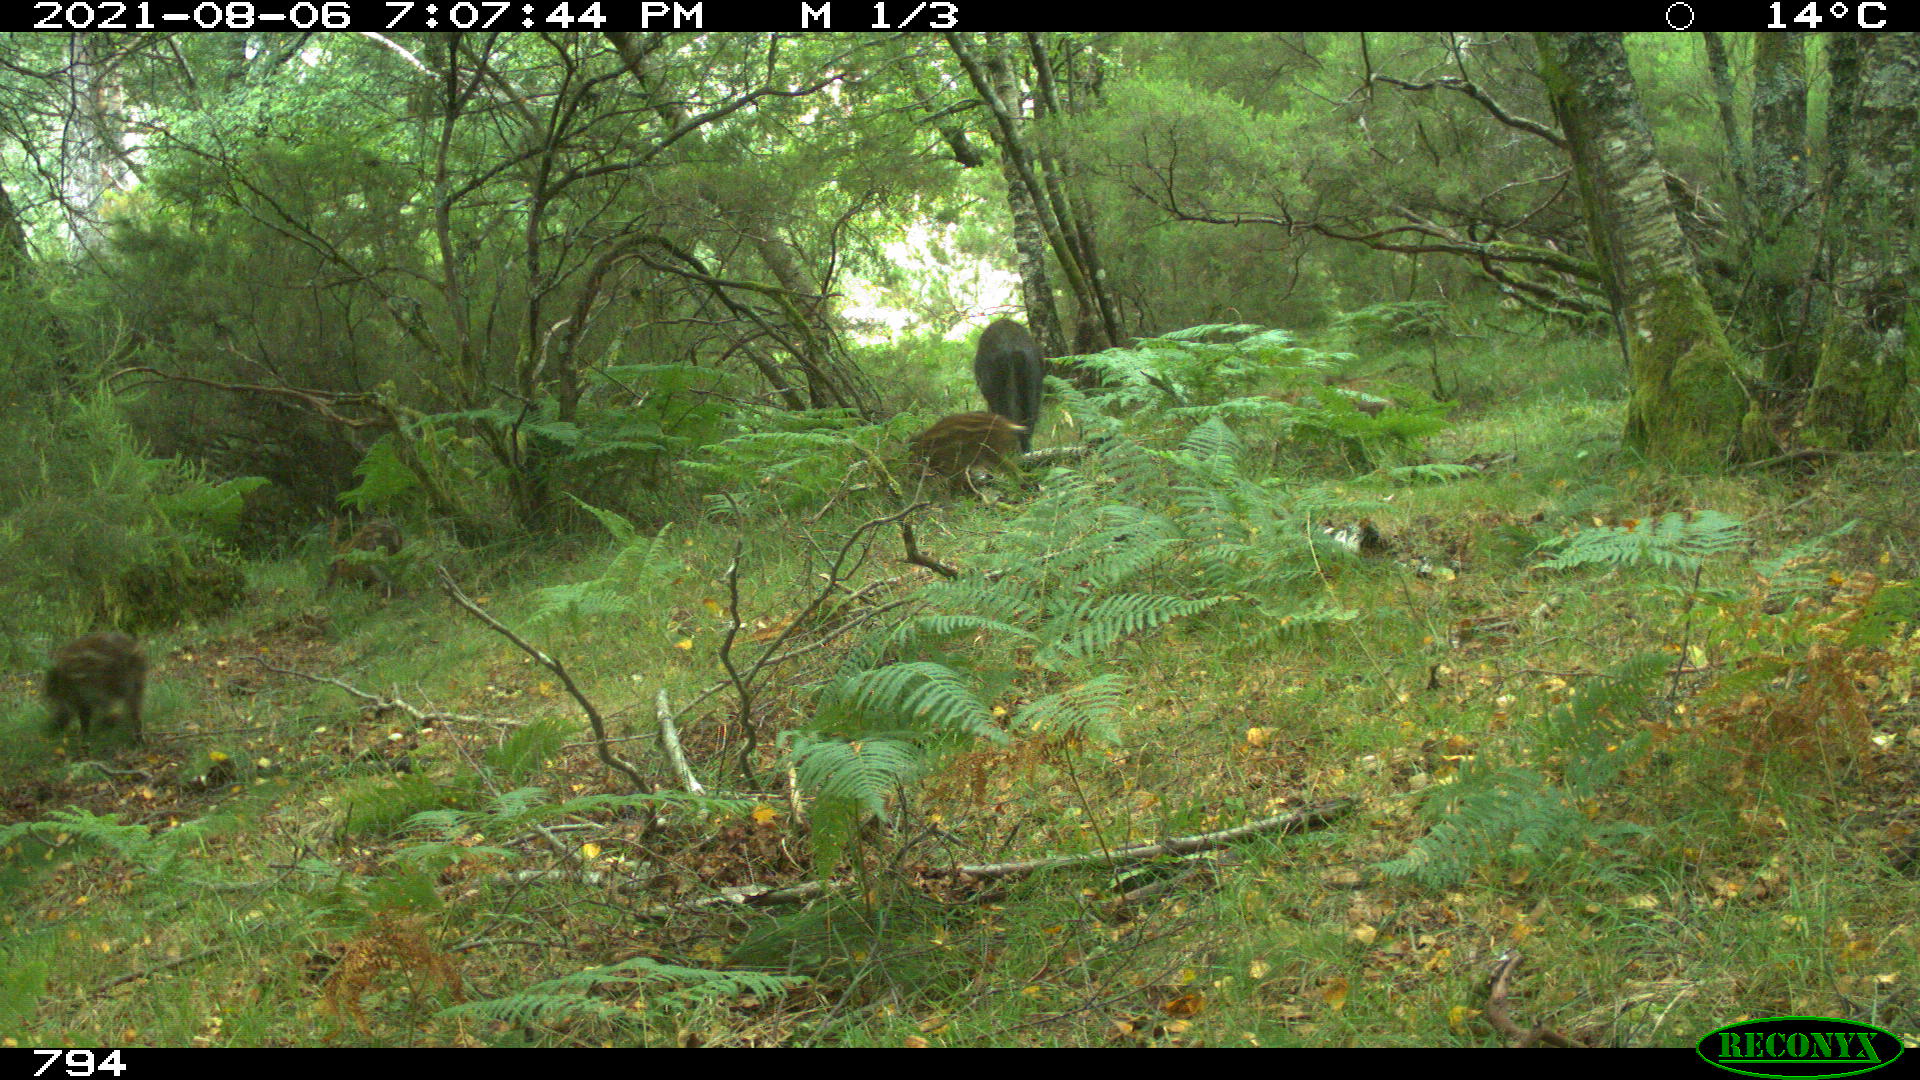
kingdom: Animalia
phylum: Chordata
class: Mammalia
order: Artiodactyla
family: Suidae
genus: Sus
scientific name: Sus scrofa
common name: Wild boar
